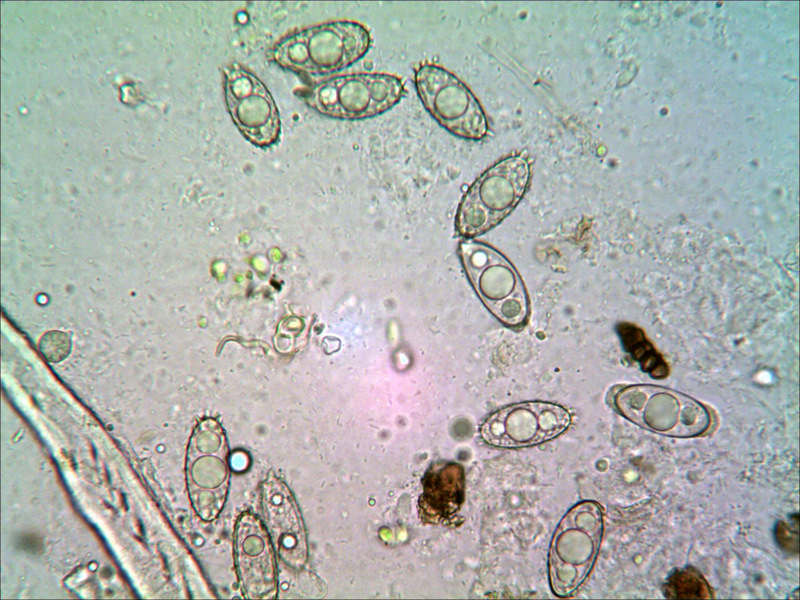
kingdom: Fungi
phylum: Ascomycota
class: Pezizomycetes
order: Pezizales
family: Discinaceae
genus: Gyromitra
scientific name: Gyromitra parma
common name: flad stenmorkel
